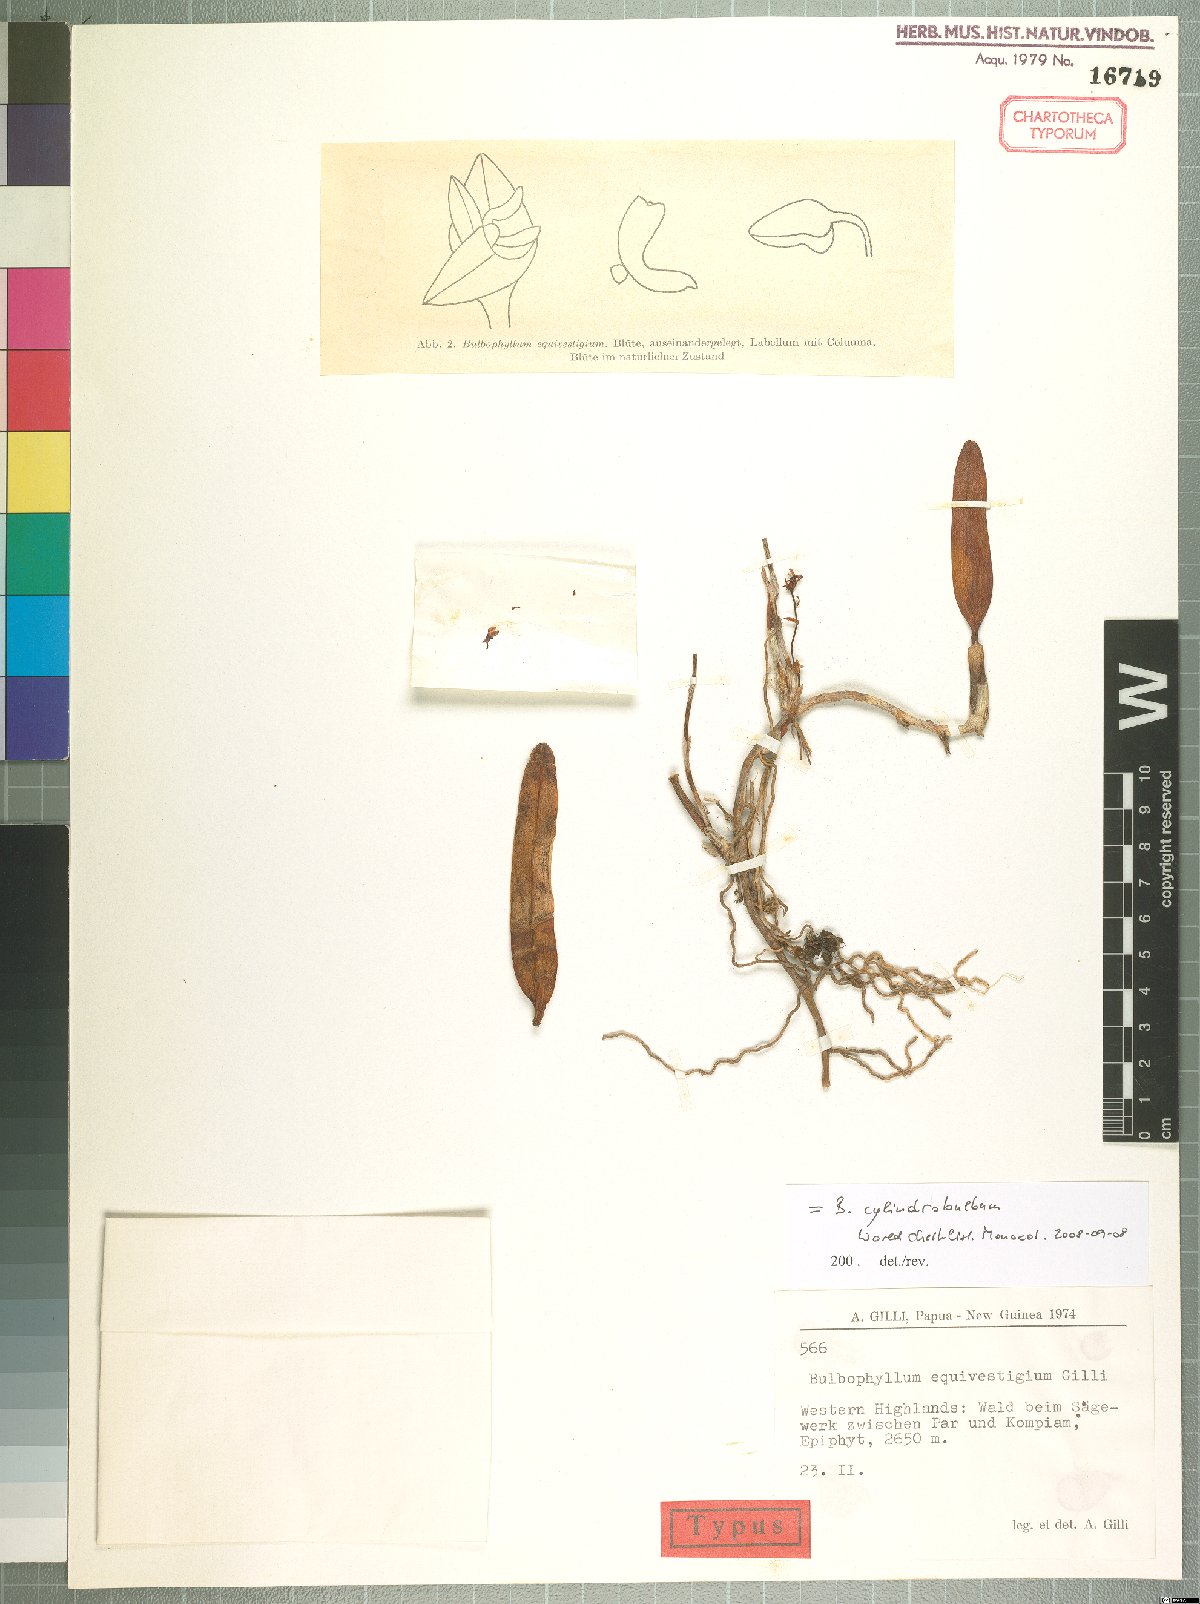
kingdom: Plantae
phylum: Tracheophyta
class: Liliopsida
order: Asparagales
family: Orchidaceae
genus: Bulbophyllum
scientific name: Bulbophyllum cylindrobulbum
